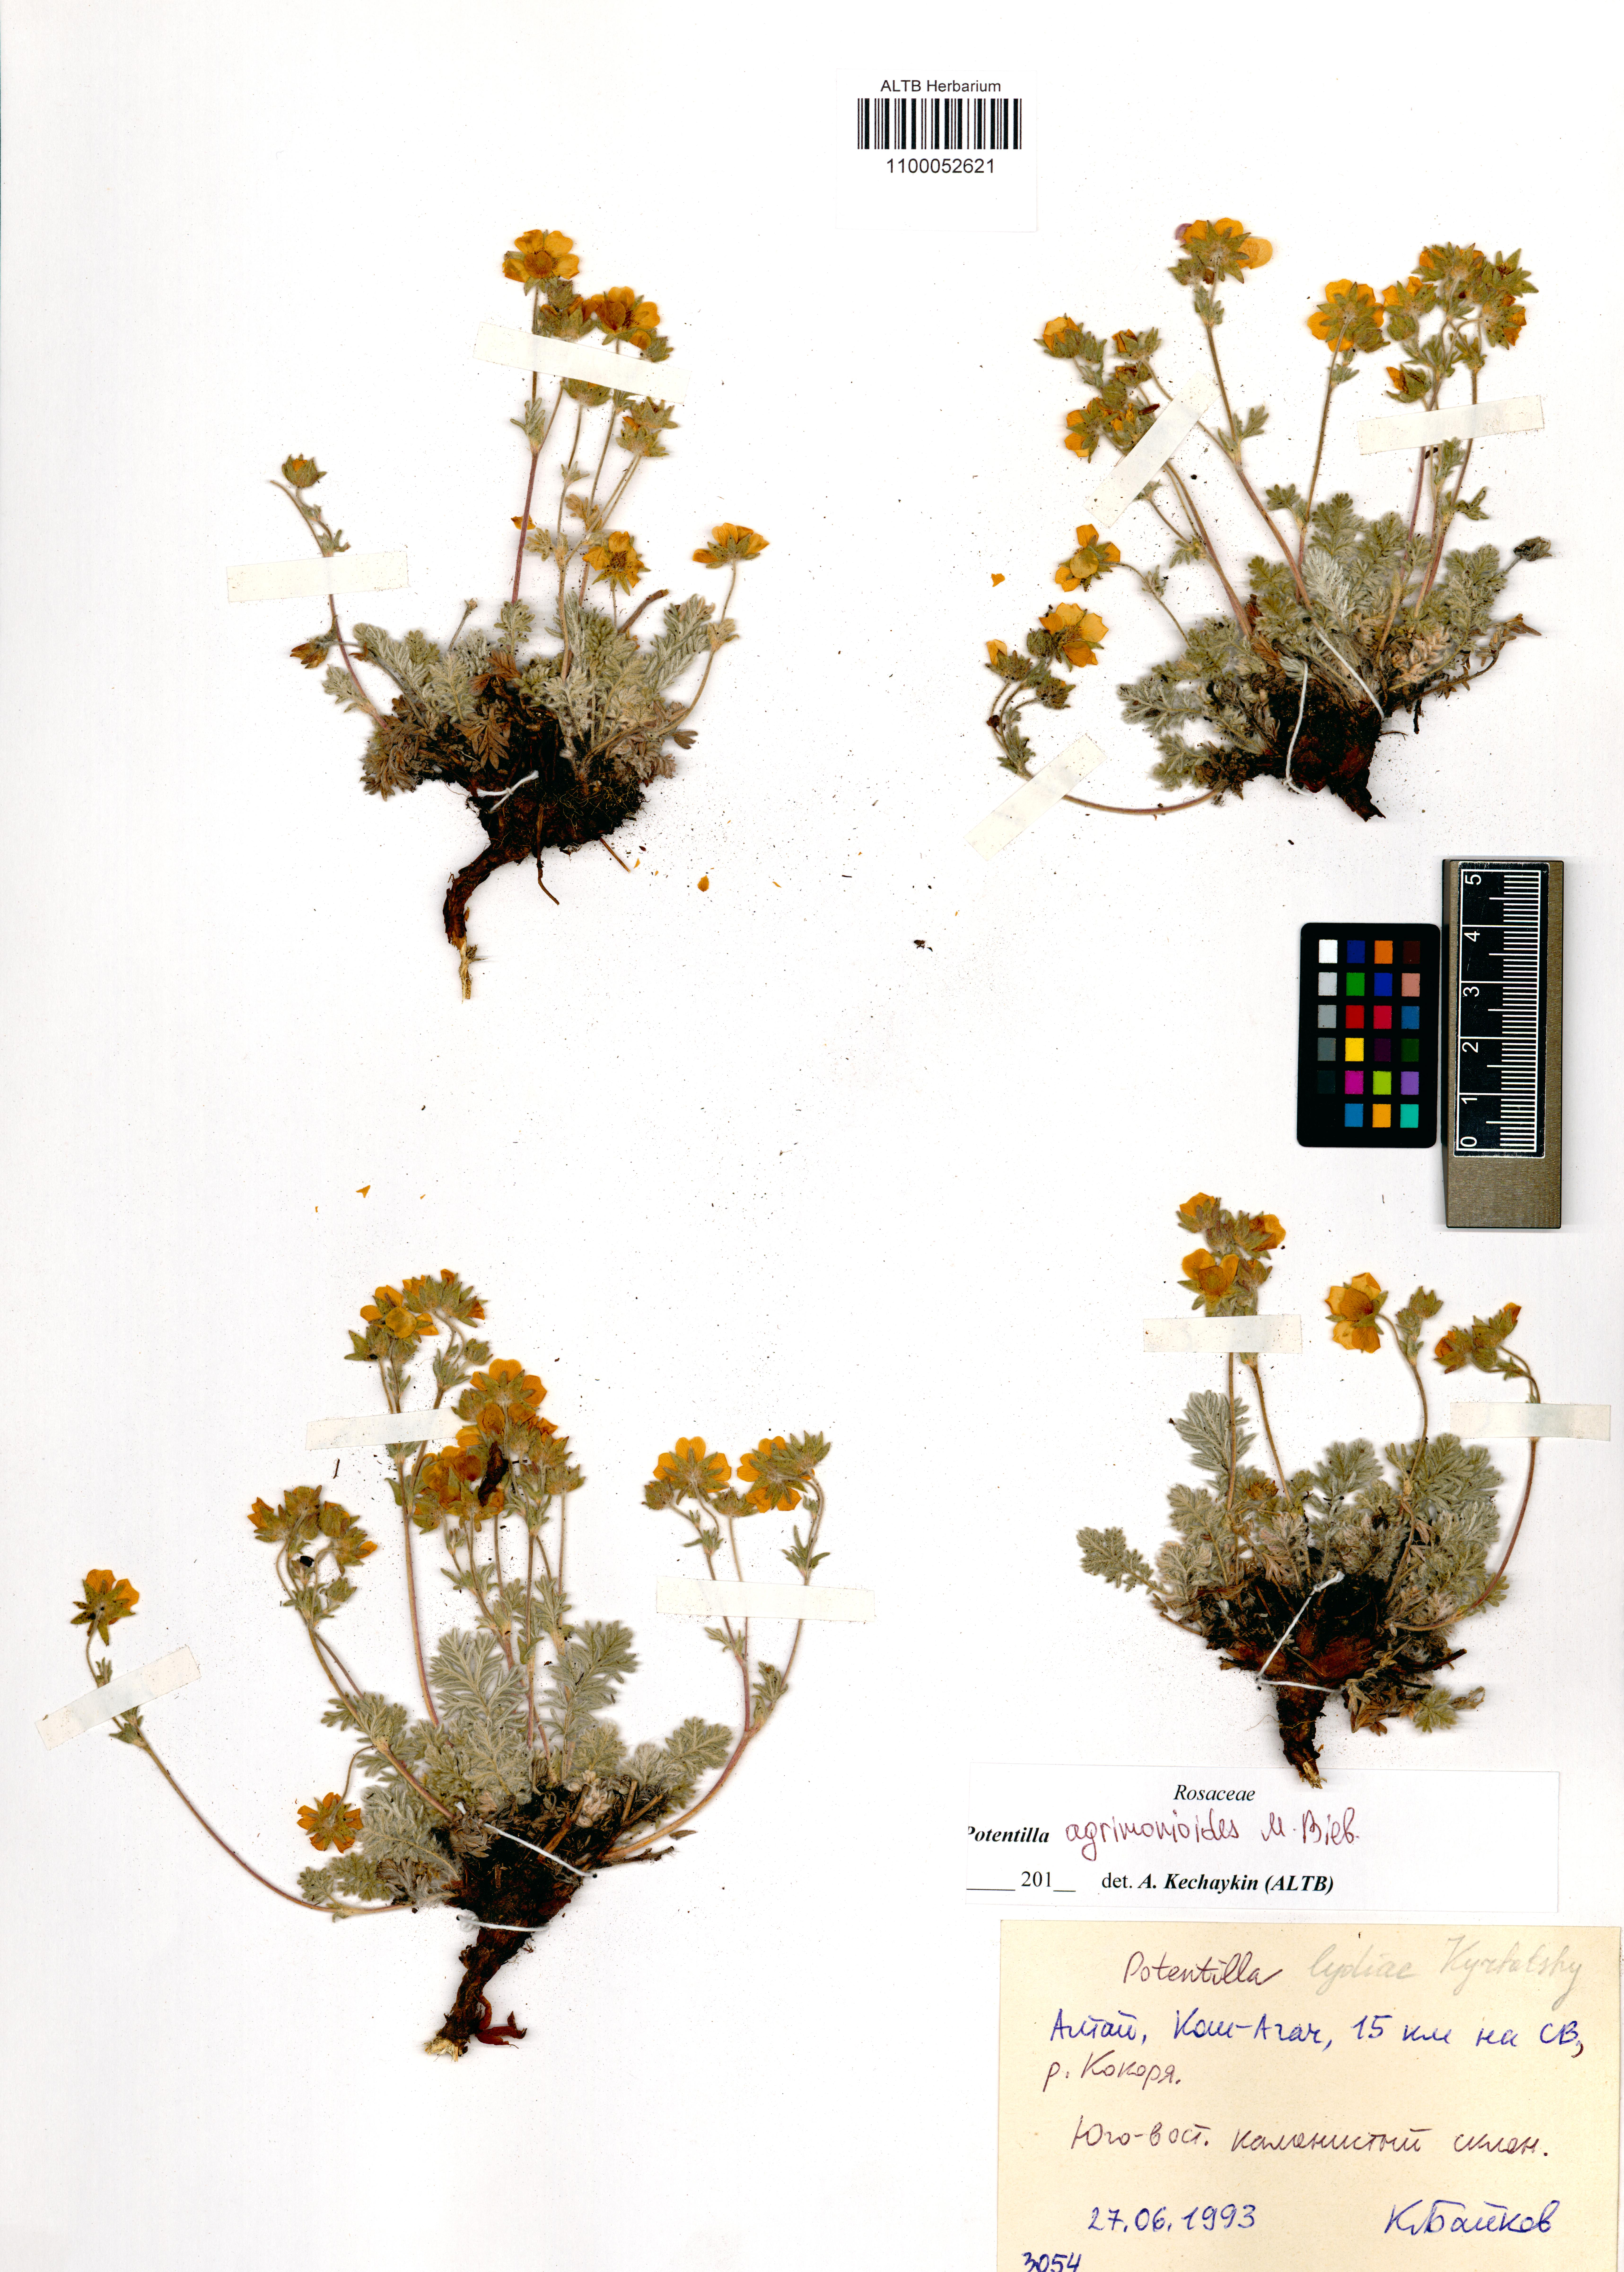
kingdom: Plantae
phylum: Tracheophyta
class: Magnoliopsida
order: Rosales
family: Rosaceae
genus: Potentilla
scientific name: Potentilla agrimonioides
